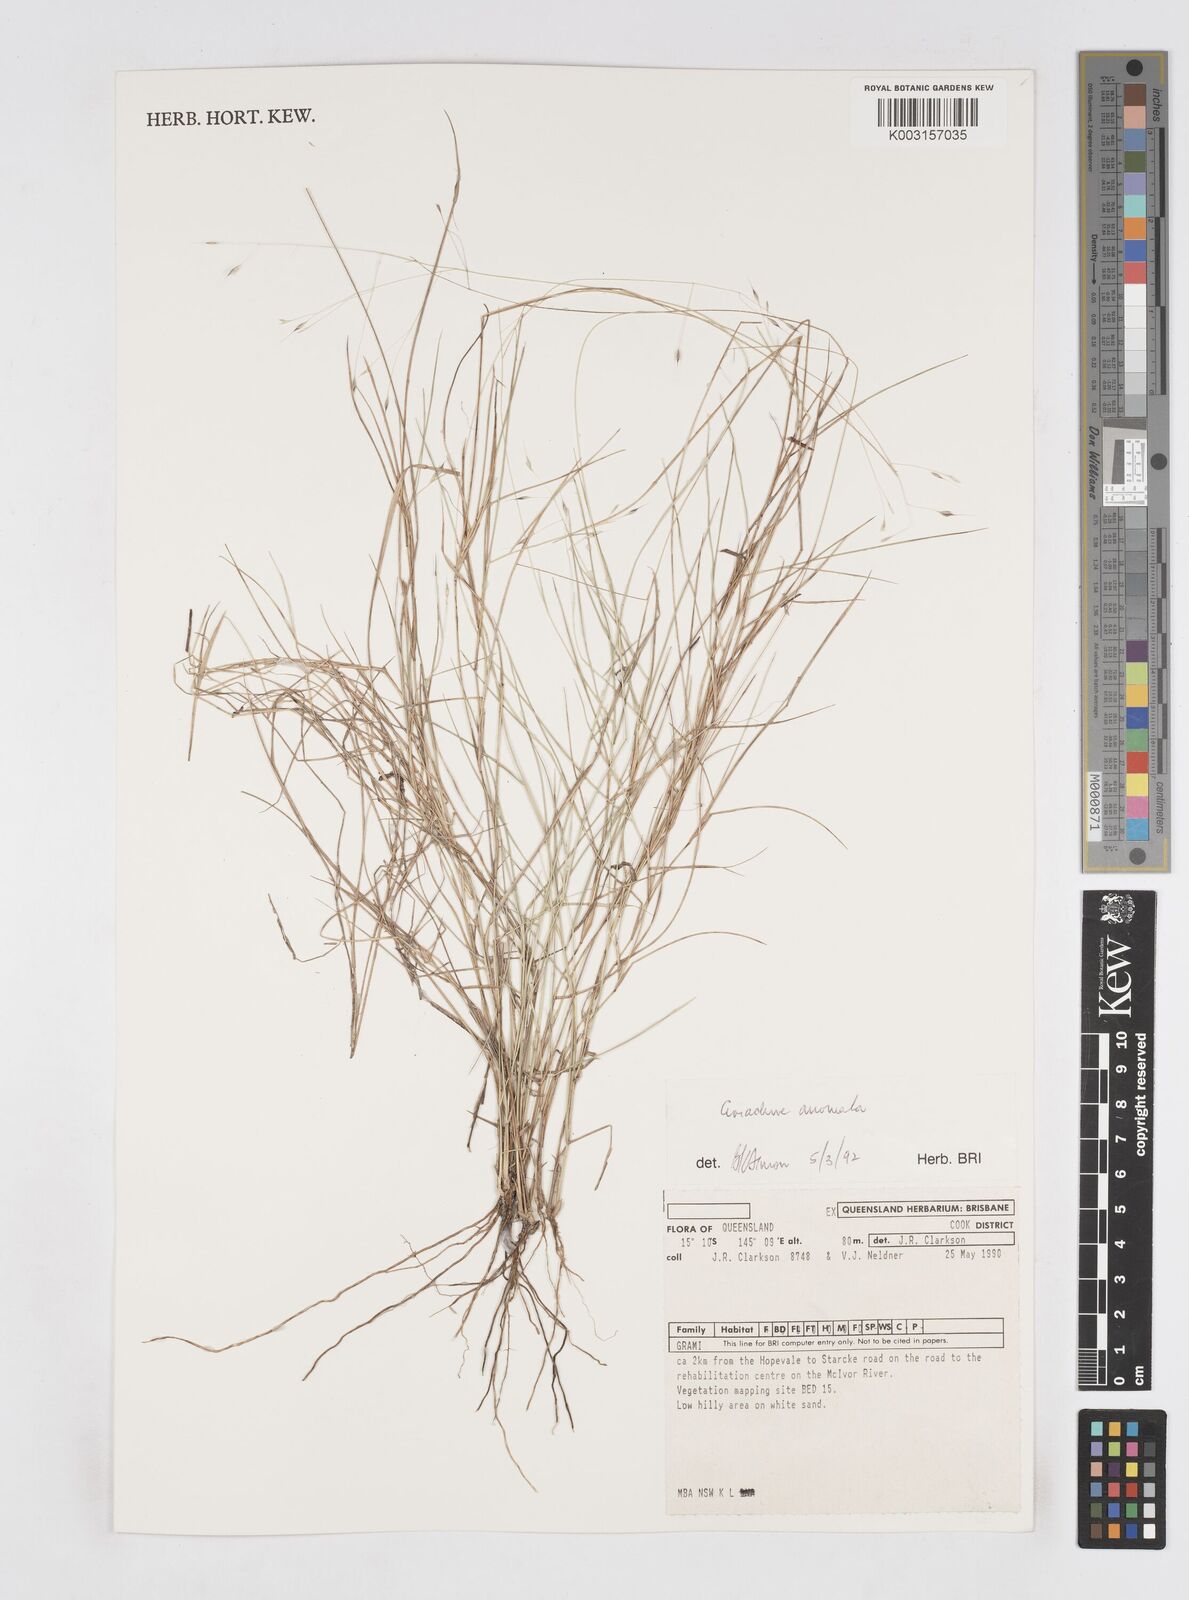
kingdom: Plantae
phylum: Tracheophyta
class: Liliopsida
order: Poales
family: Poaceae
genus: Eriachne
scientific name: Eriachne pallescens
